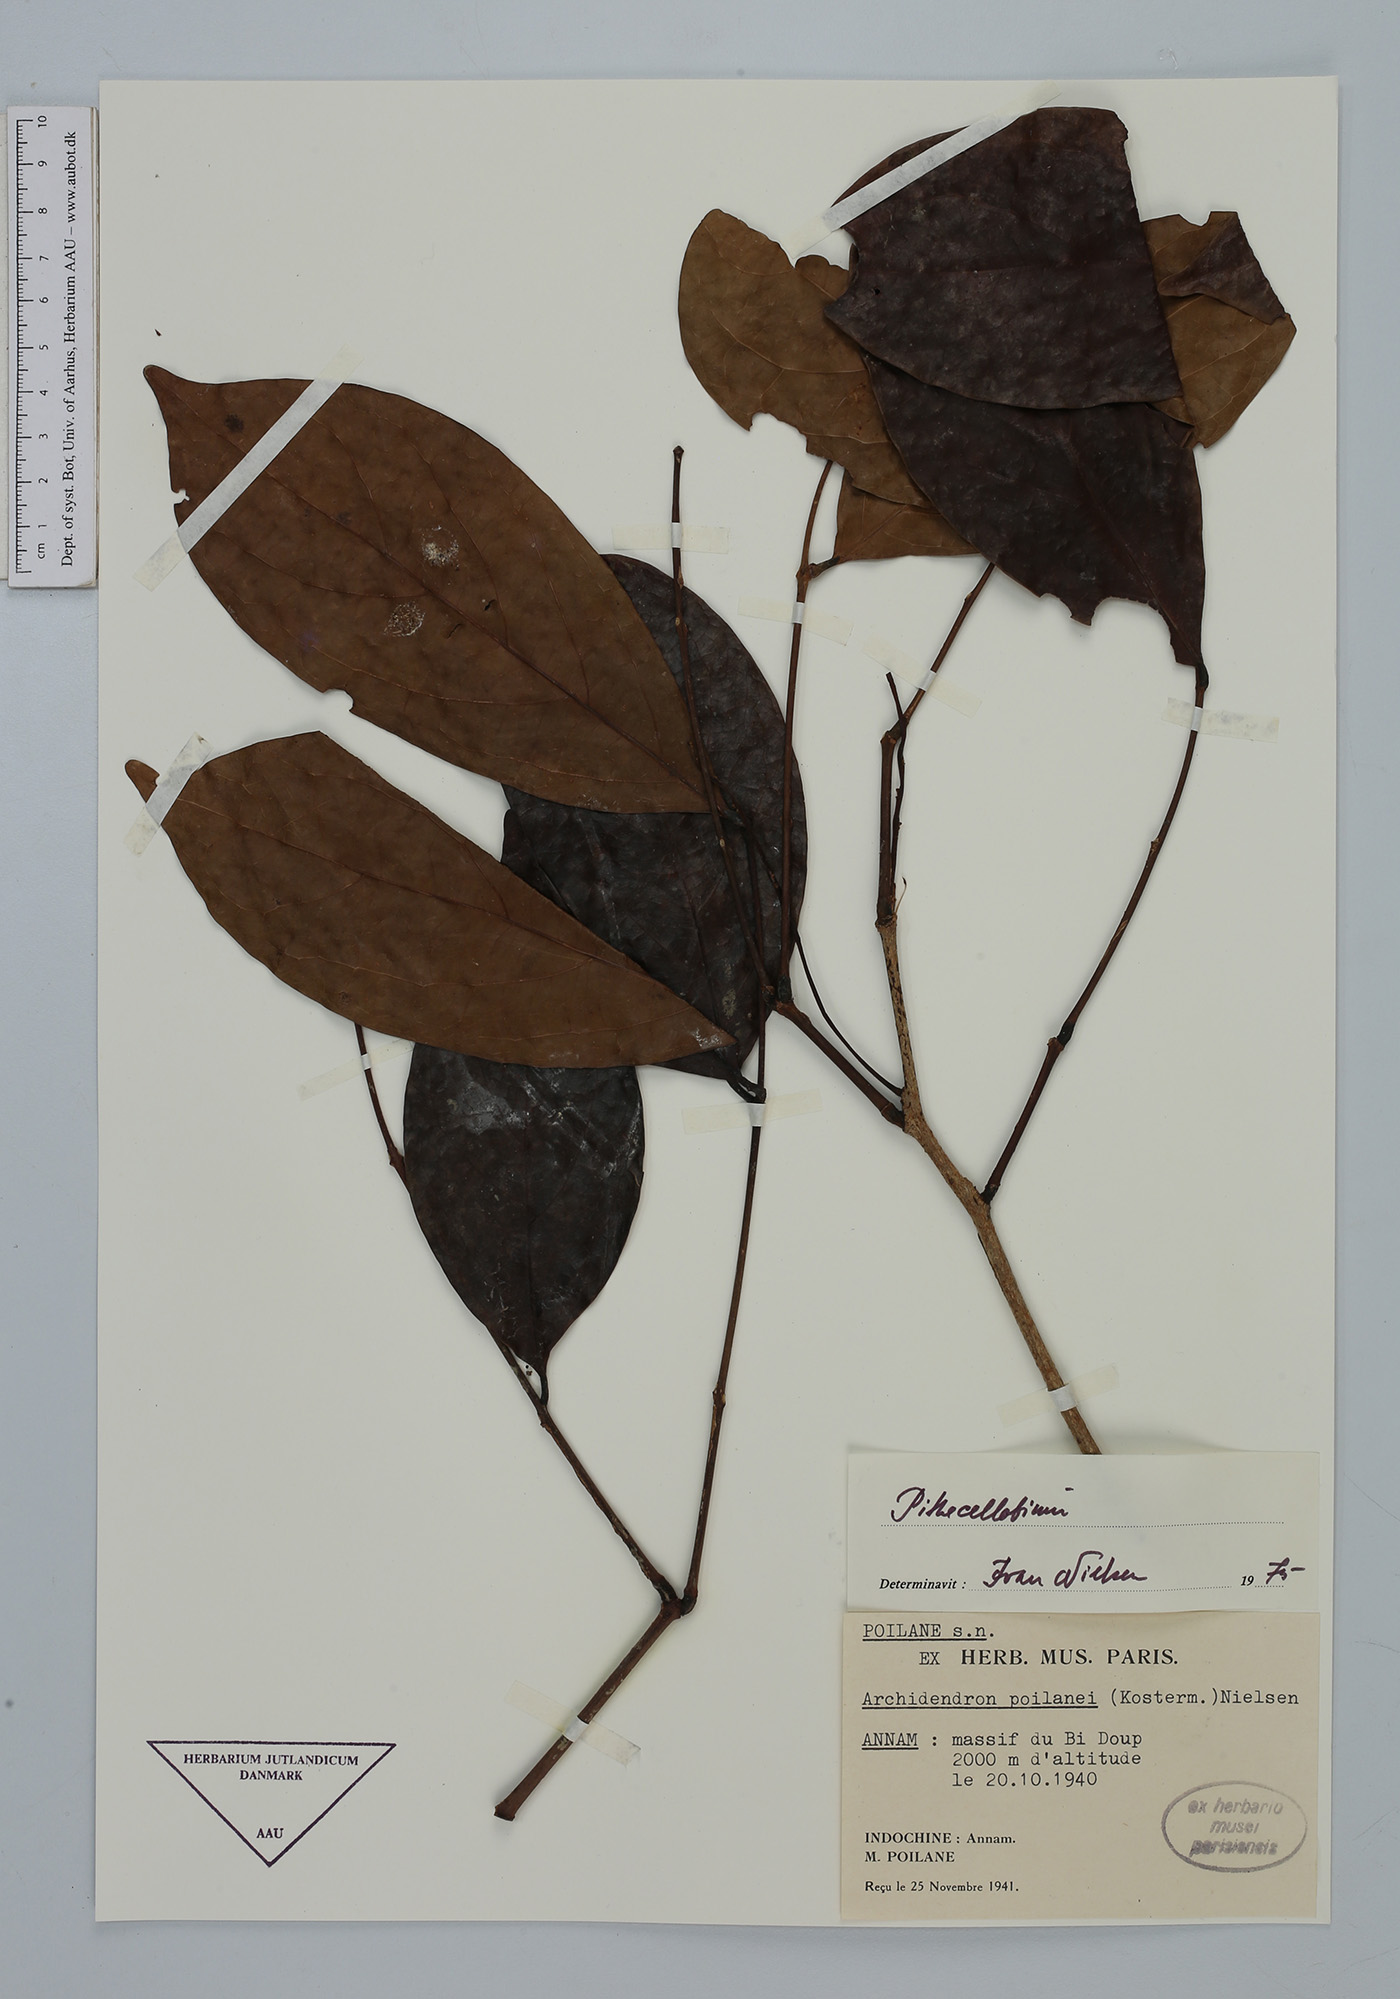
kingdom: Plantae
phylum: Tracheophyta
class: Magnoliopsida
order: Fabales
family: Fabaceae
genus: Archidendron
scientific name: Archidendron poilanei
